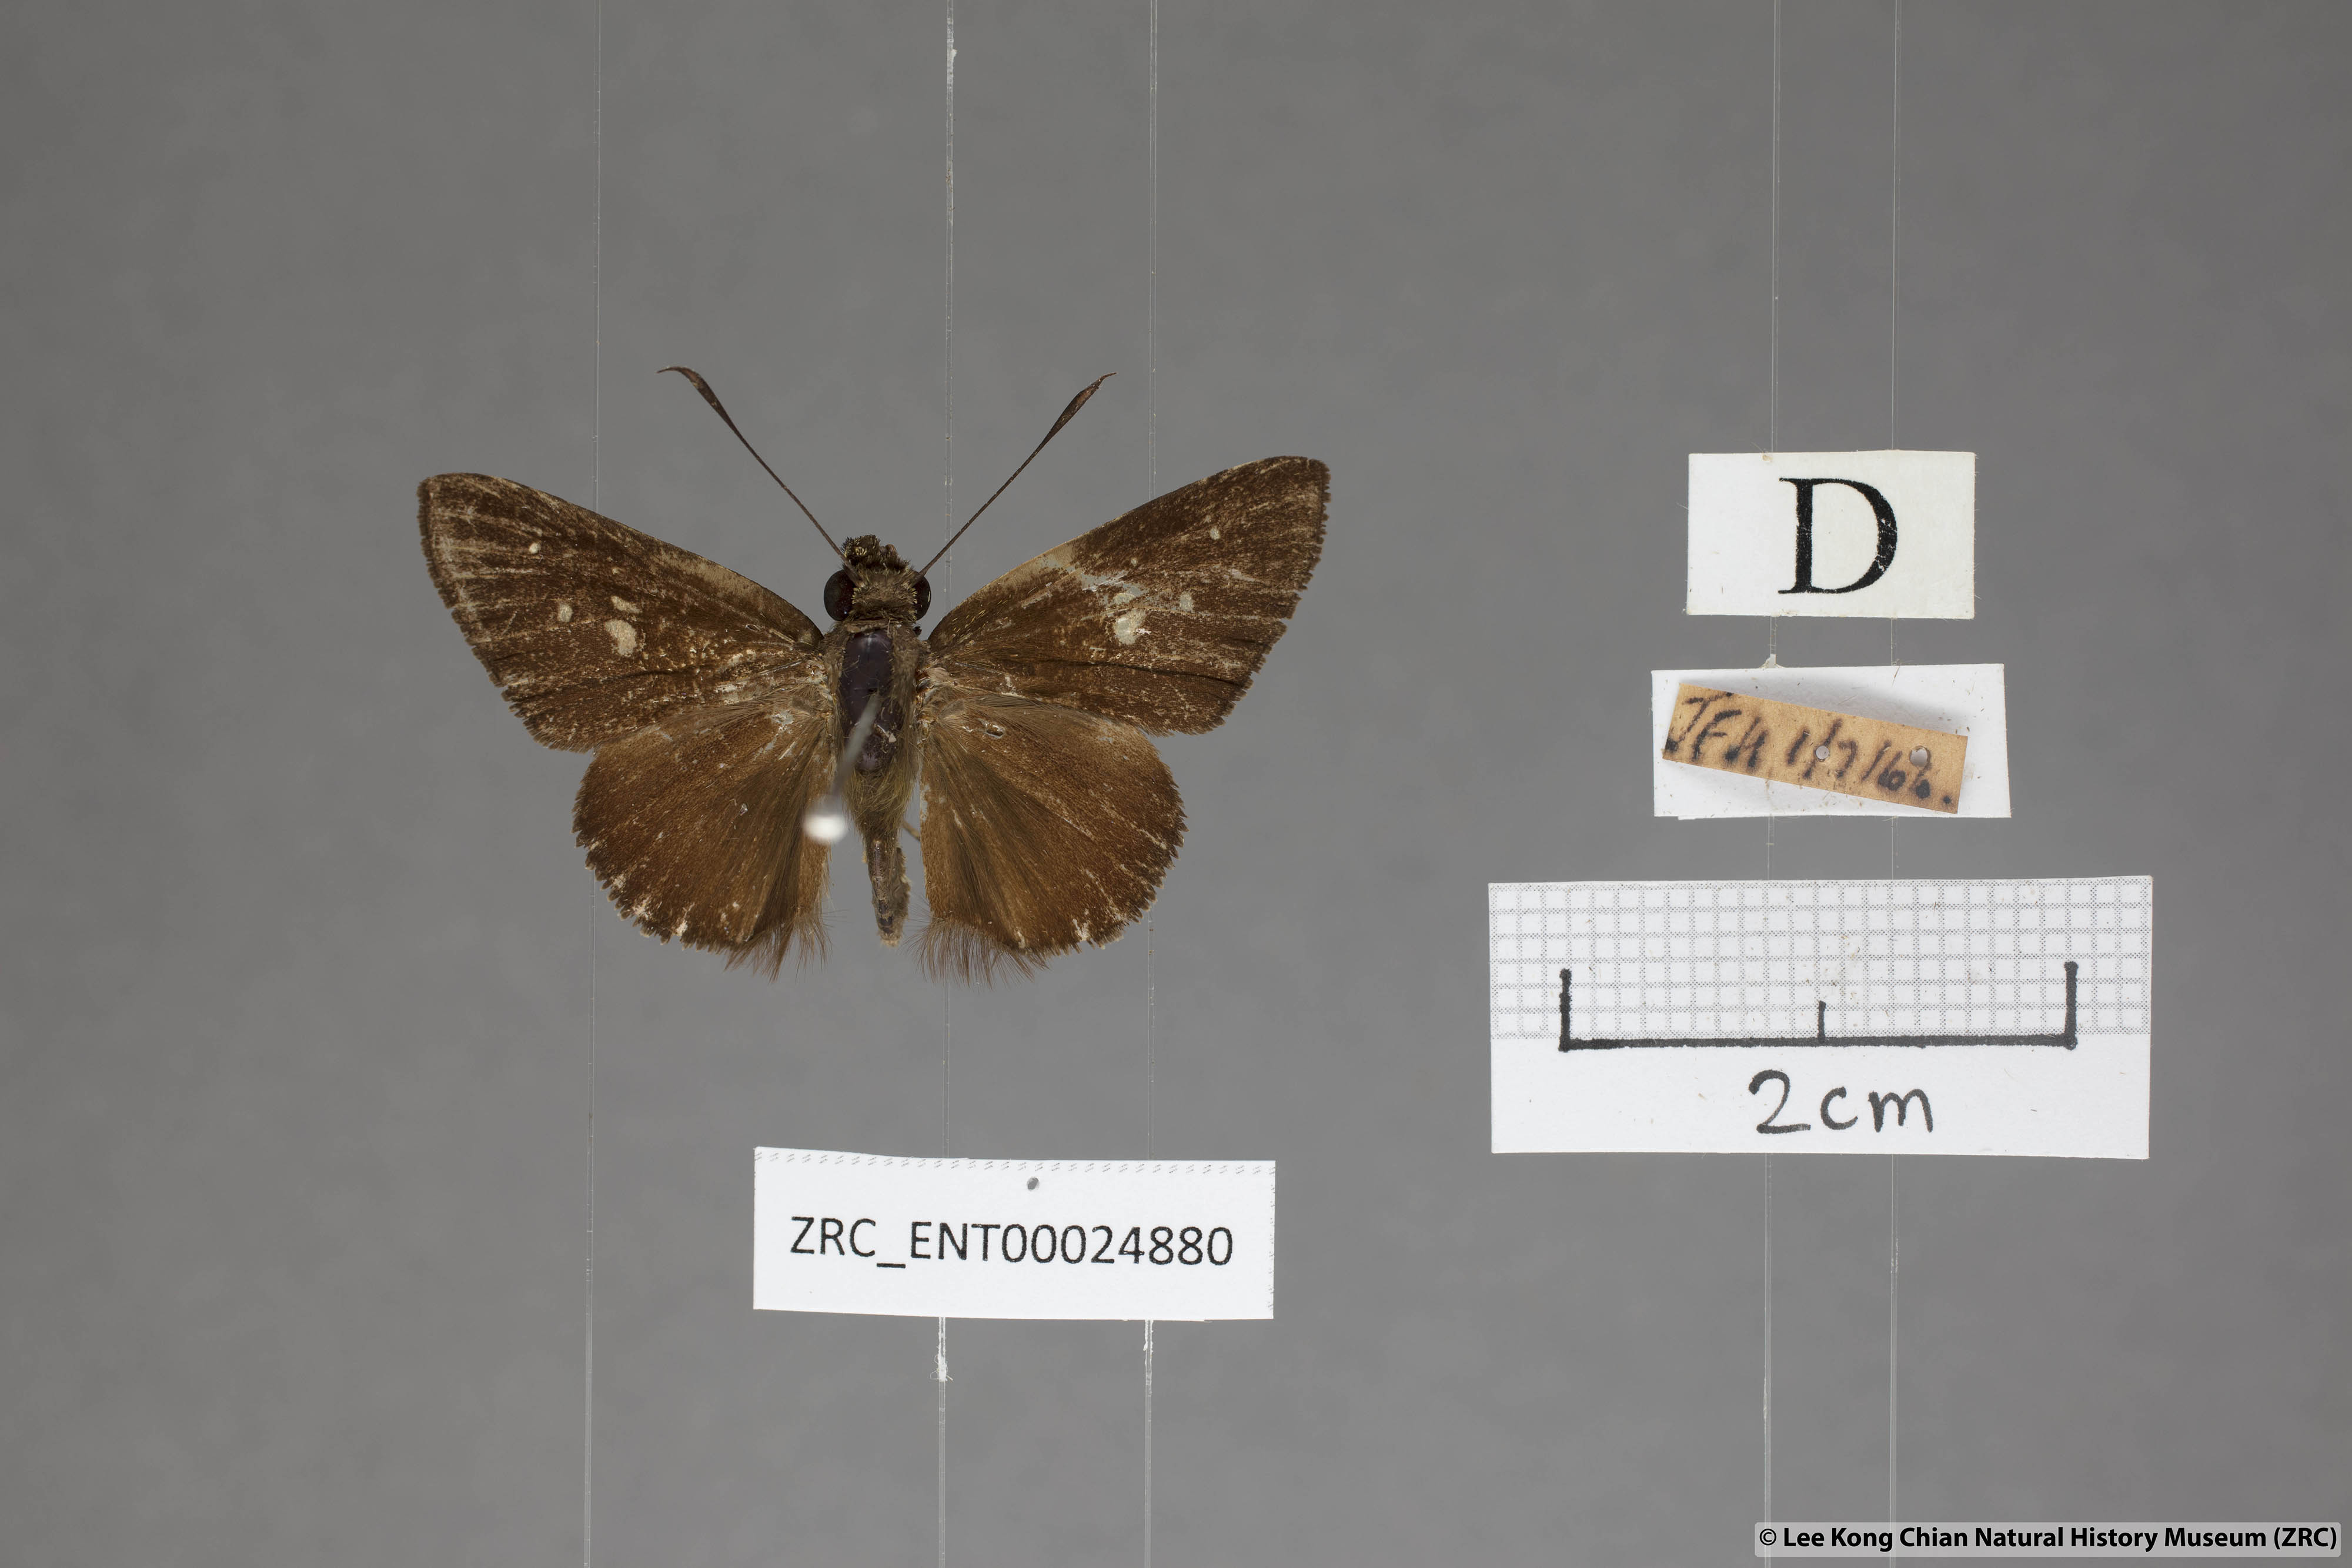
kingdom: Animalia
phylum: Arthropoda
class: Insecta
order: Lepidoptera
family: Hesperiidae
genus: Isma
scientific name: Isma protoclea
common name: Bicolour long-horned flitter
